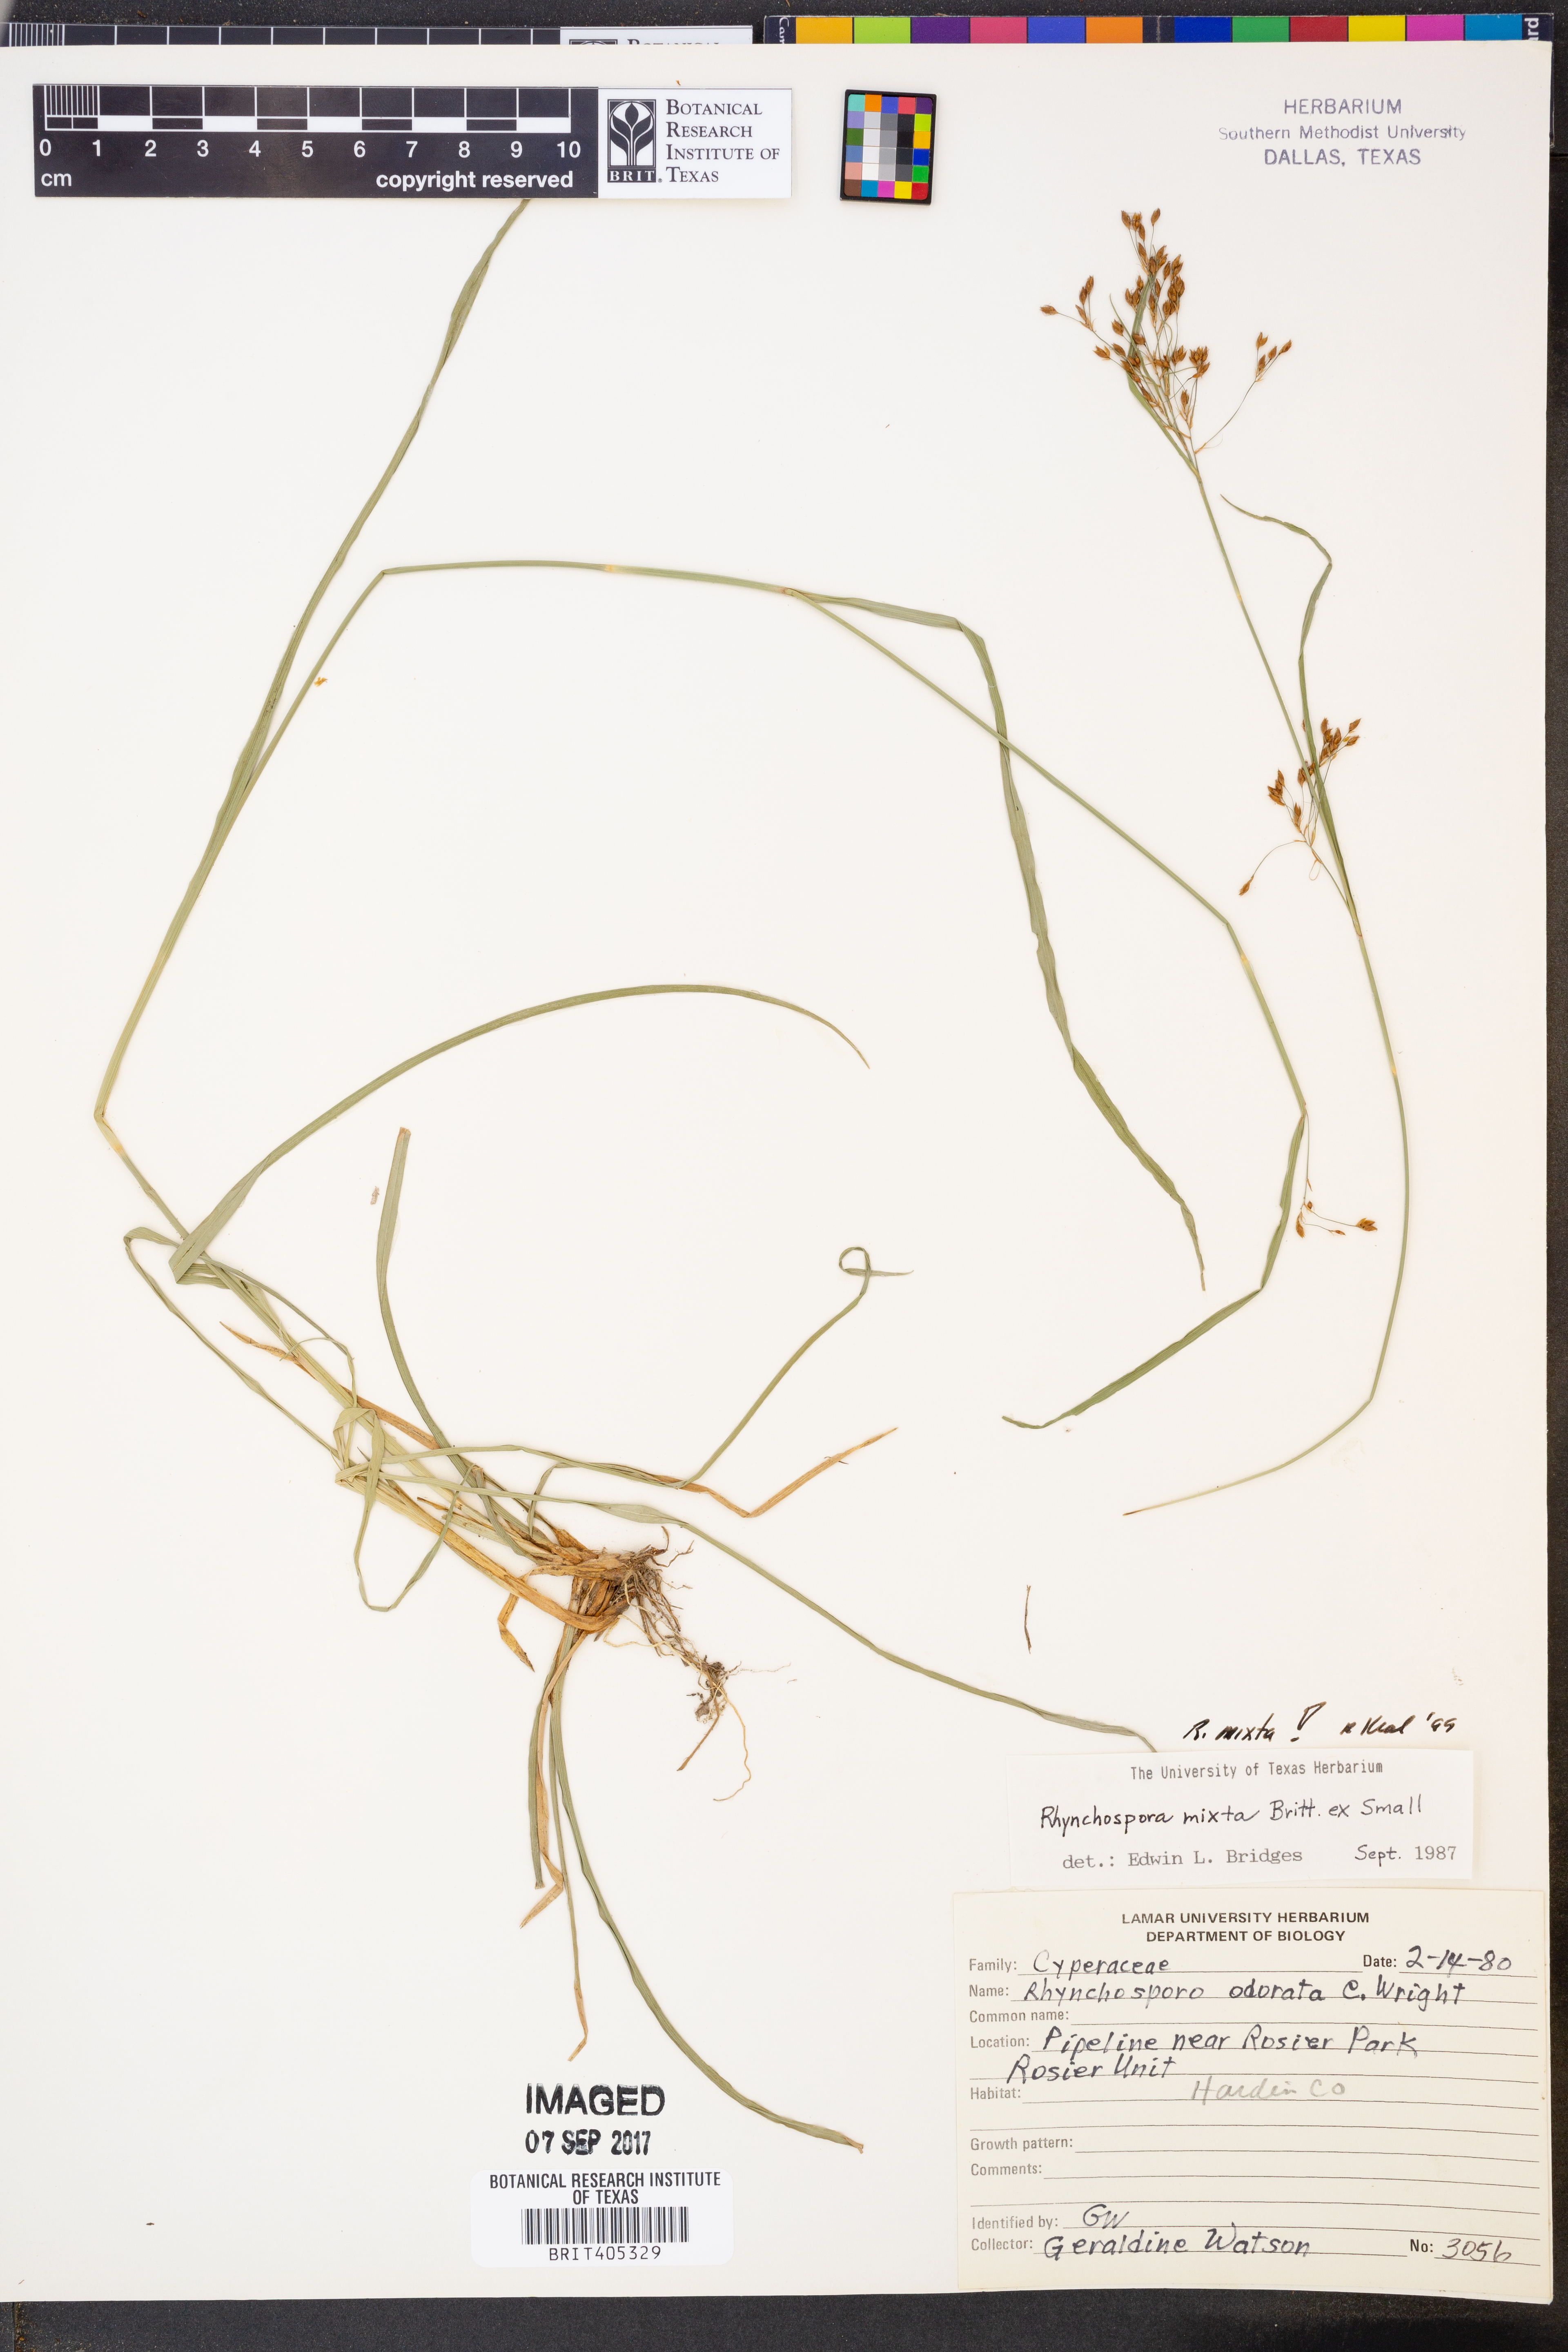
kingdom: Plantae
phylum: Tracheophyta
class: Liliopsida
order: Poales
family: Cyperaceae
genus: Rhynchospora
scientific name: Rhynchospora mixta
